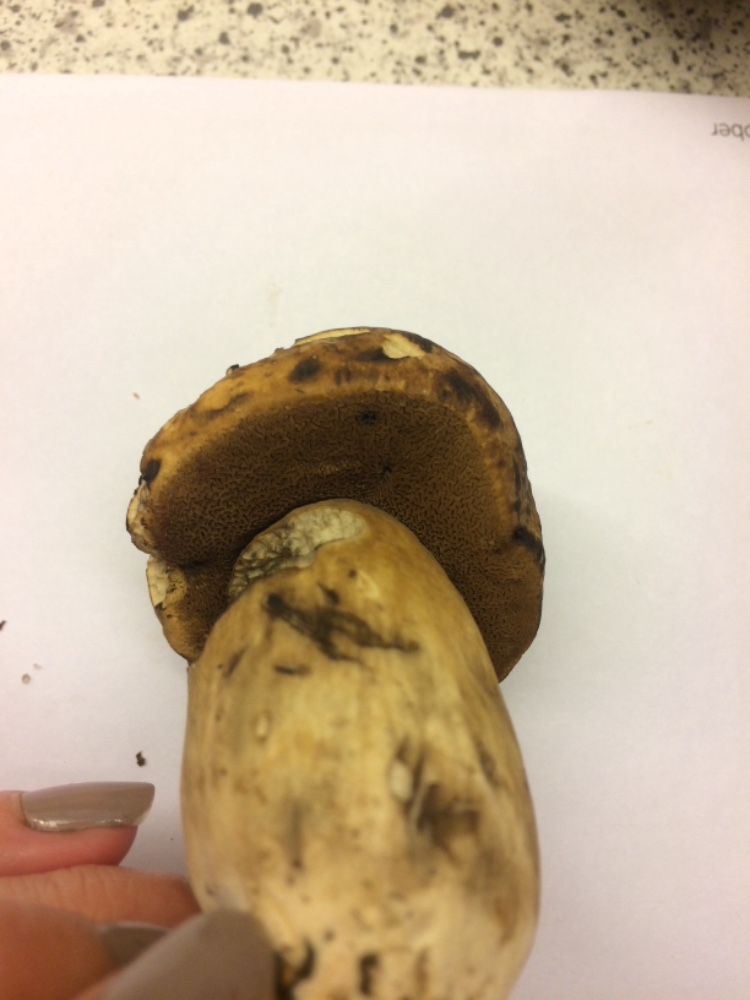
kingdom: Fungi
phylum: Basidiomycota
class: Agaricomycetes
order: Boletales
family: Boletaceae
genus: Porphyrellus
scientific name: Porphyrellus porphyrosporus
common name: sodrørhat
